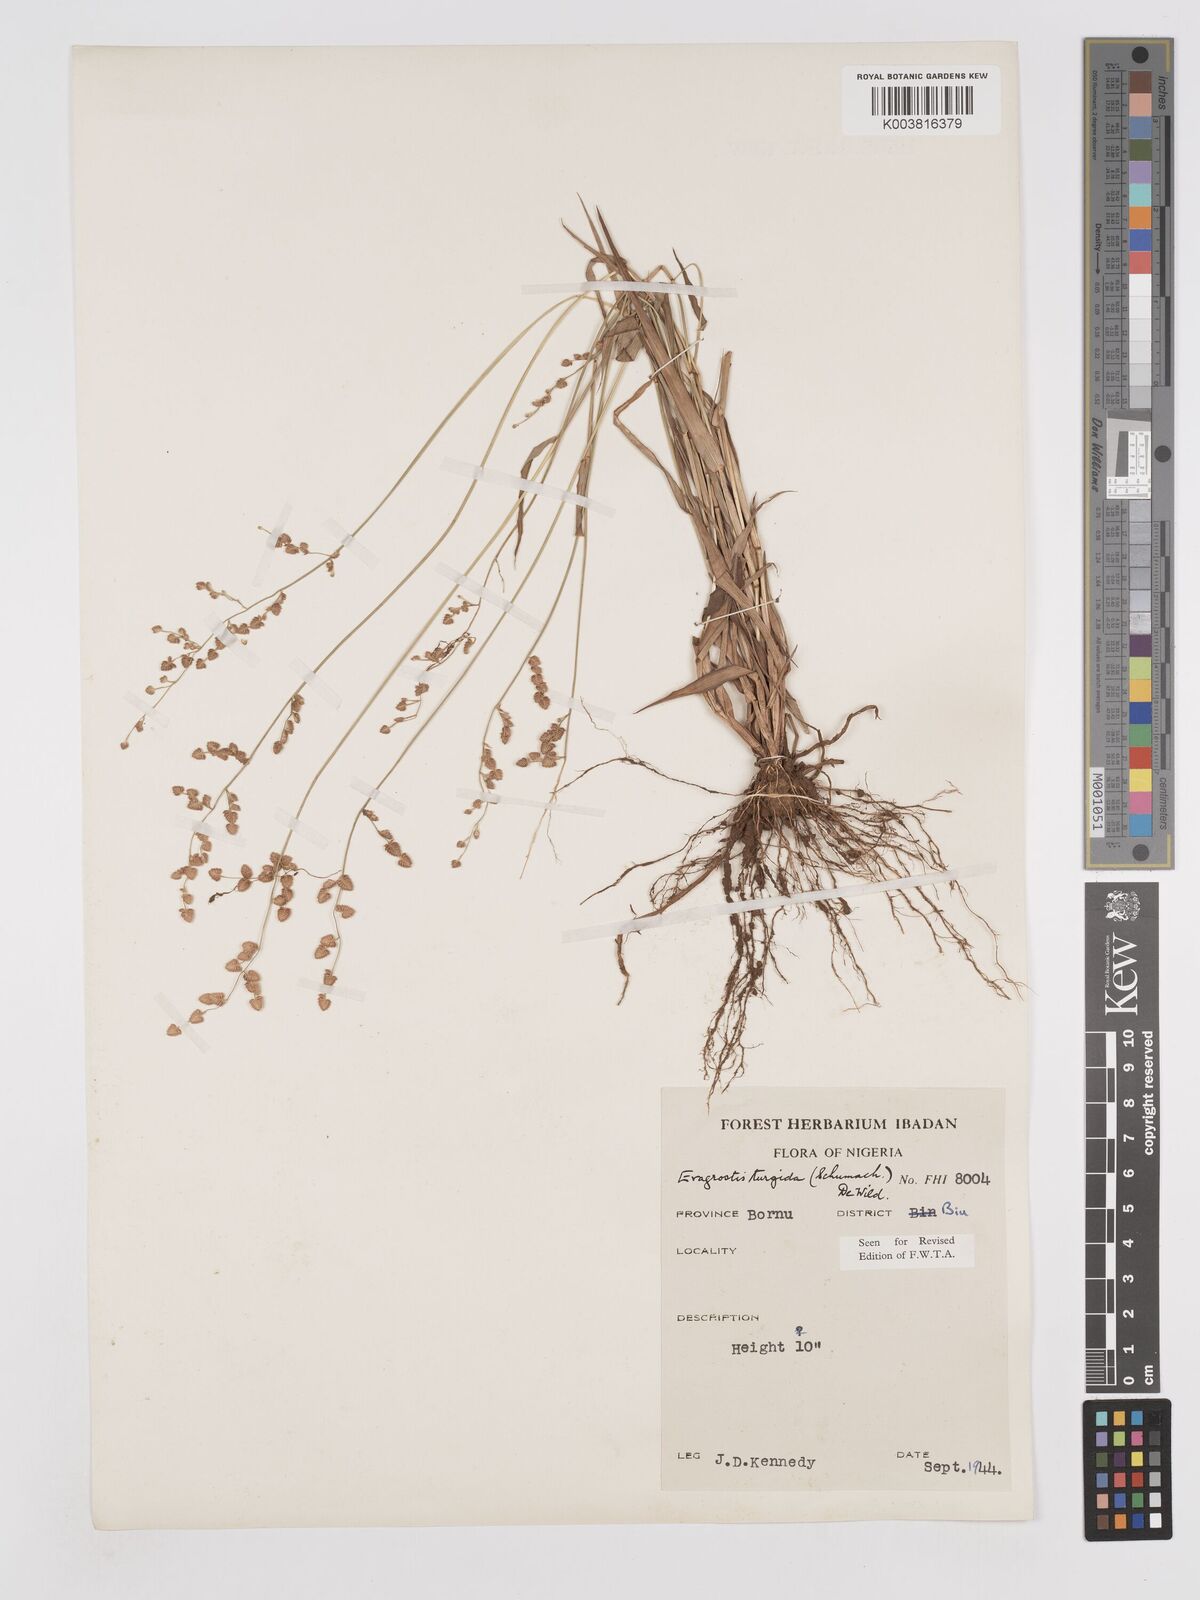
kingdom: Plantae
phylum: Tracheophyta
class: Liliopsida
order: Poales
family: Poaceae
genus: Eragrostis
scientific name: Eragrostis turgida
